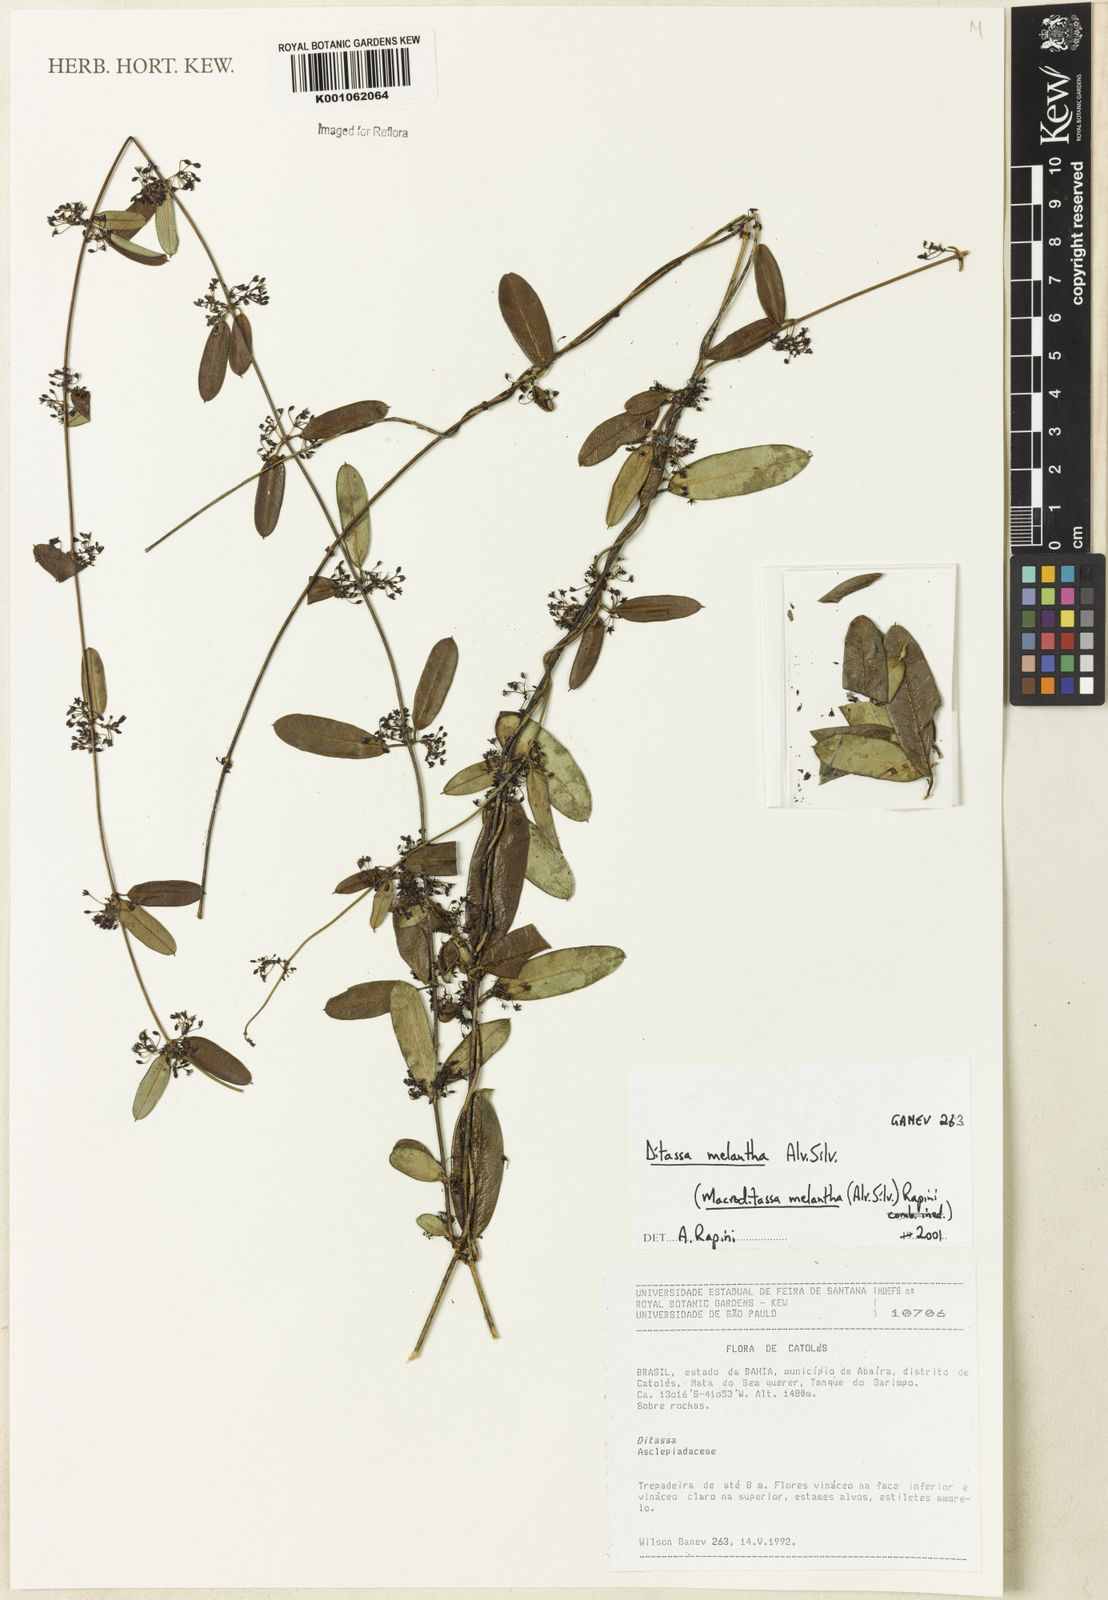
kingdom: Plantae
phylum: Tracheophyta
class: Magnoliopsida
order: Gentianales
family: Apocynaceae
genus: Macroditassa
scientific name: Macroditassa melantha
